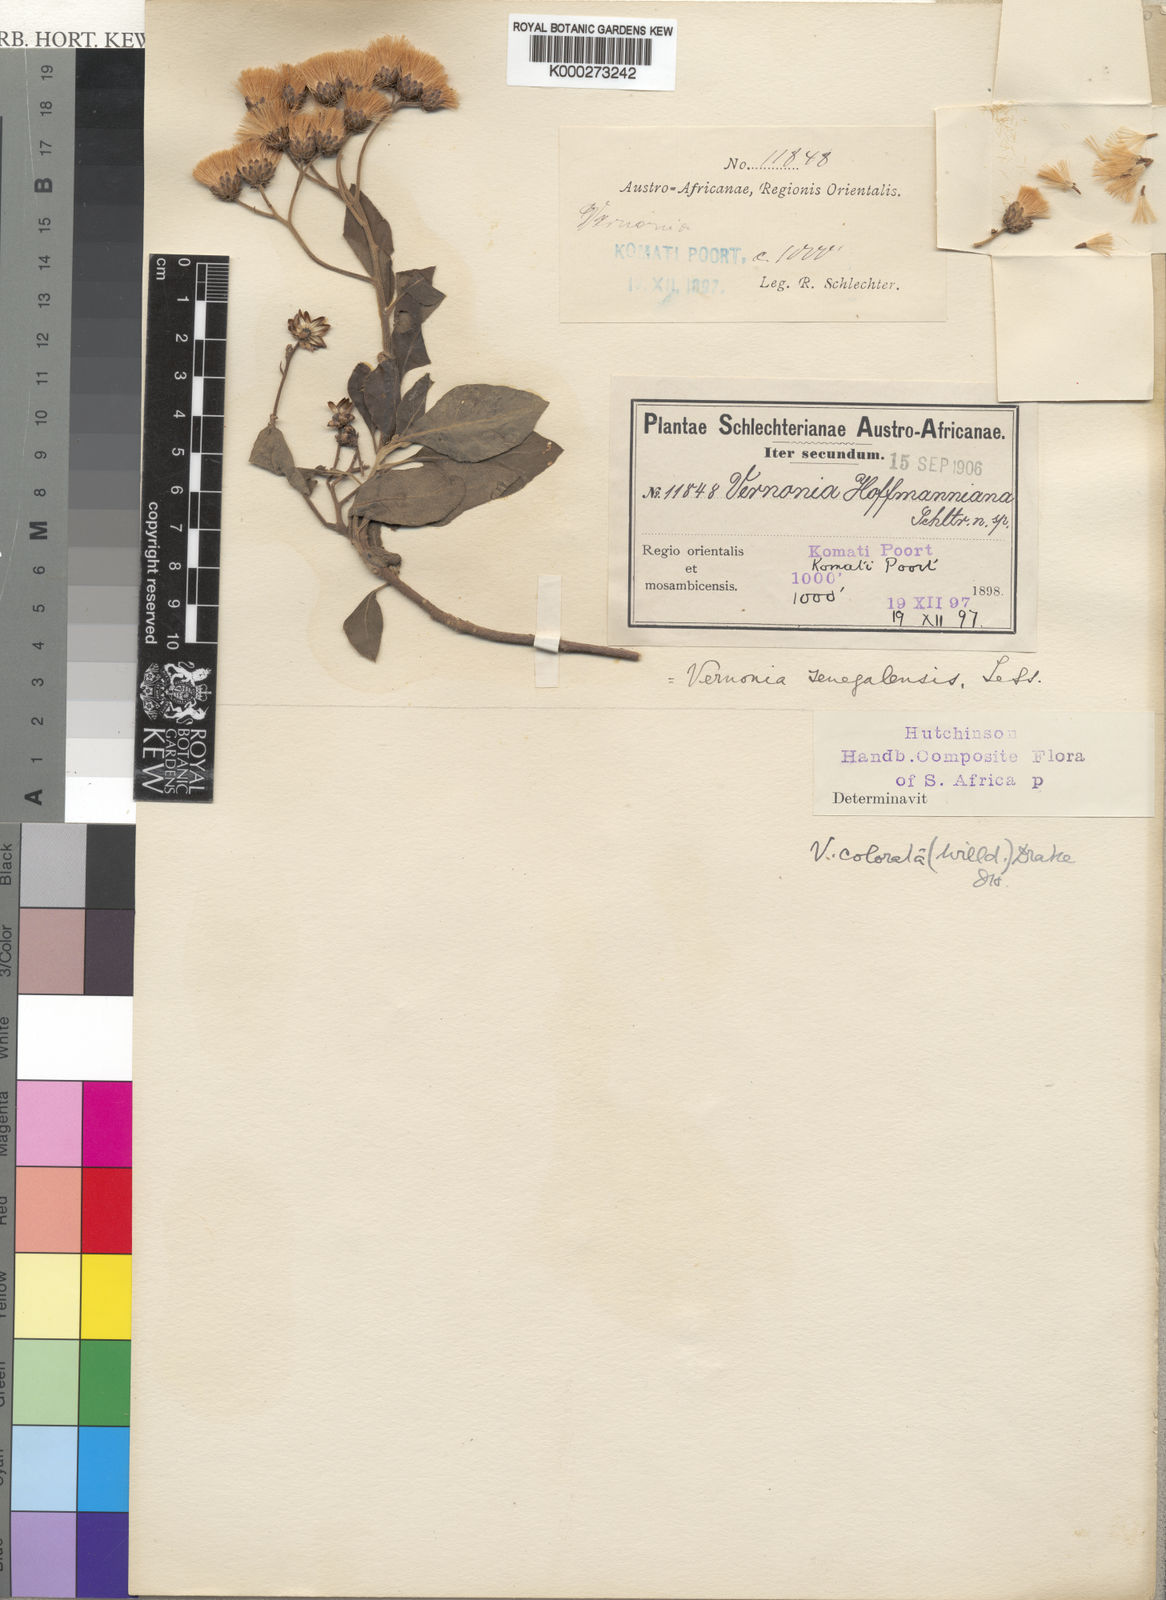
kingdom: Plantae
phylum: Tracheophyta
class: Magnoliopsida
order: Asterales
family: Asteraceae
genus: Vernonia
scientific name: Vernonia colorata
